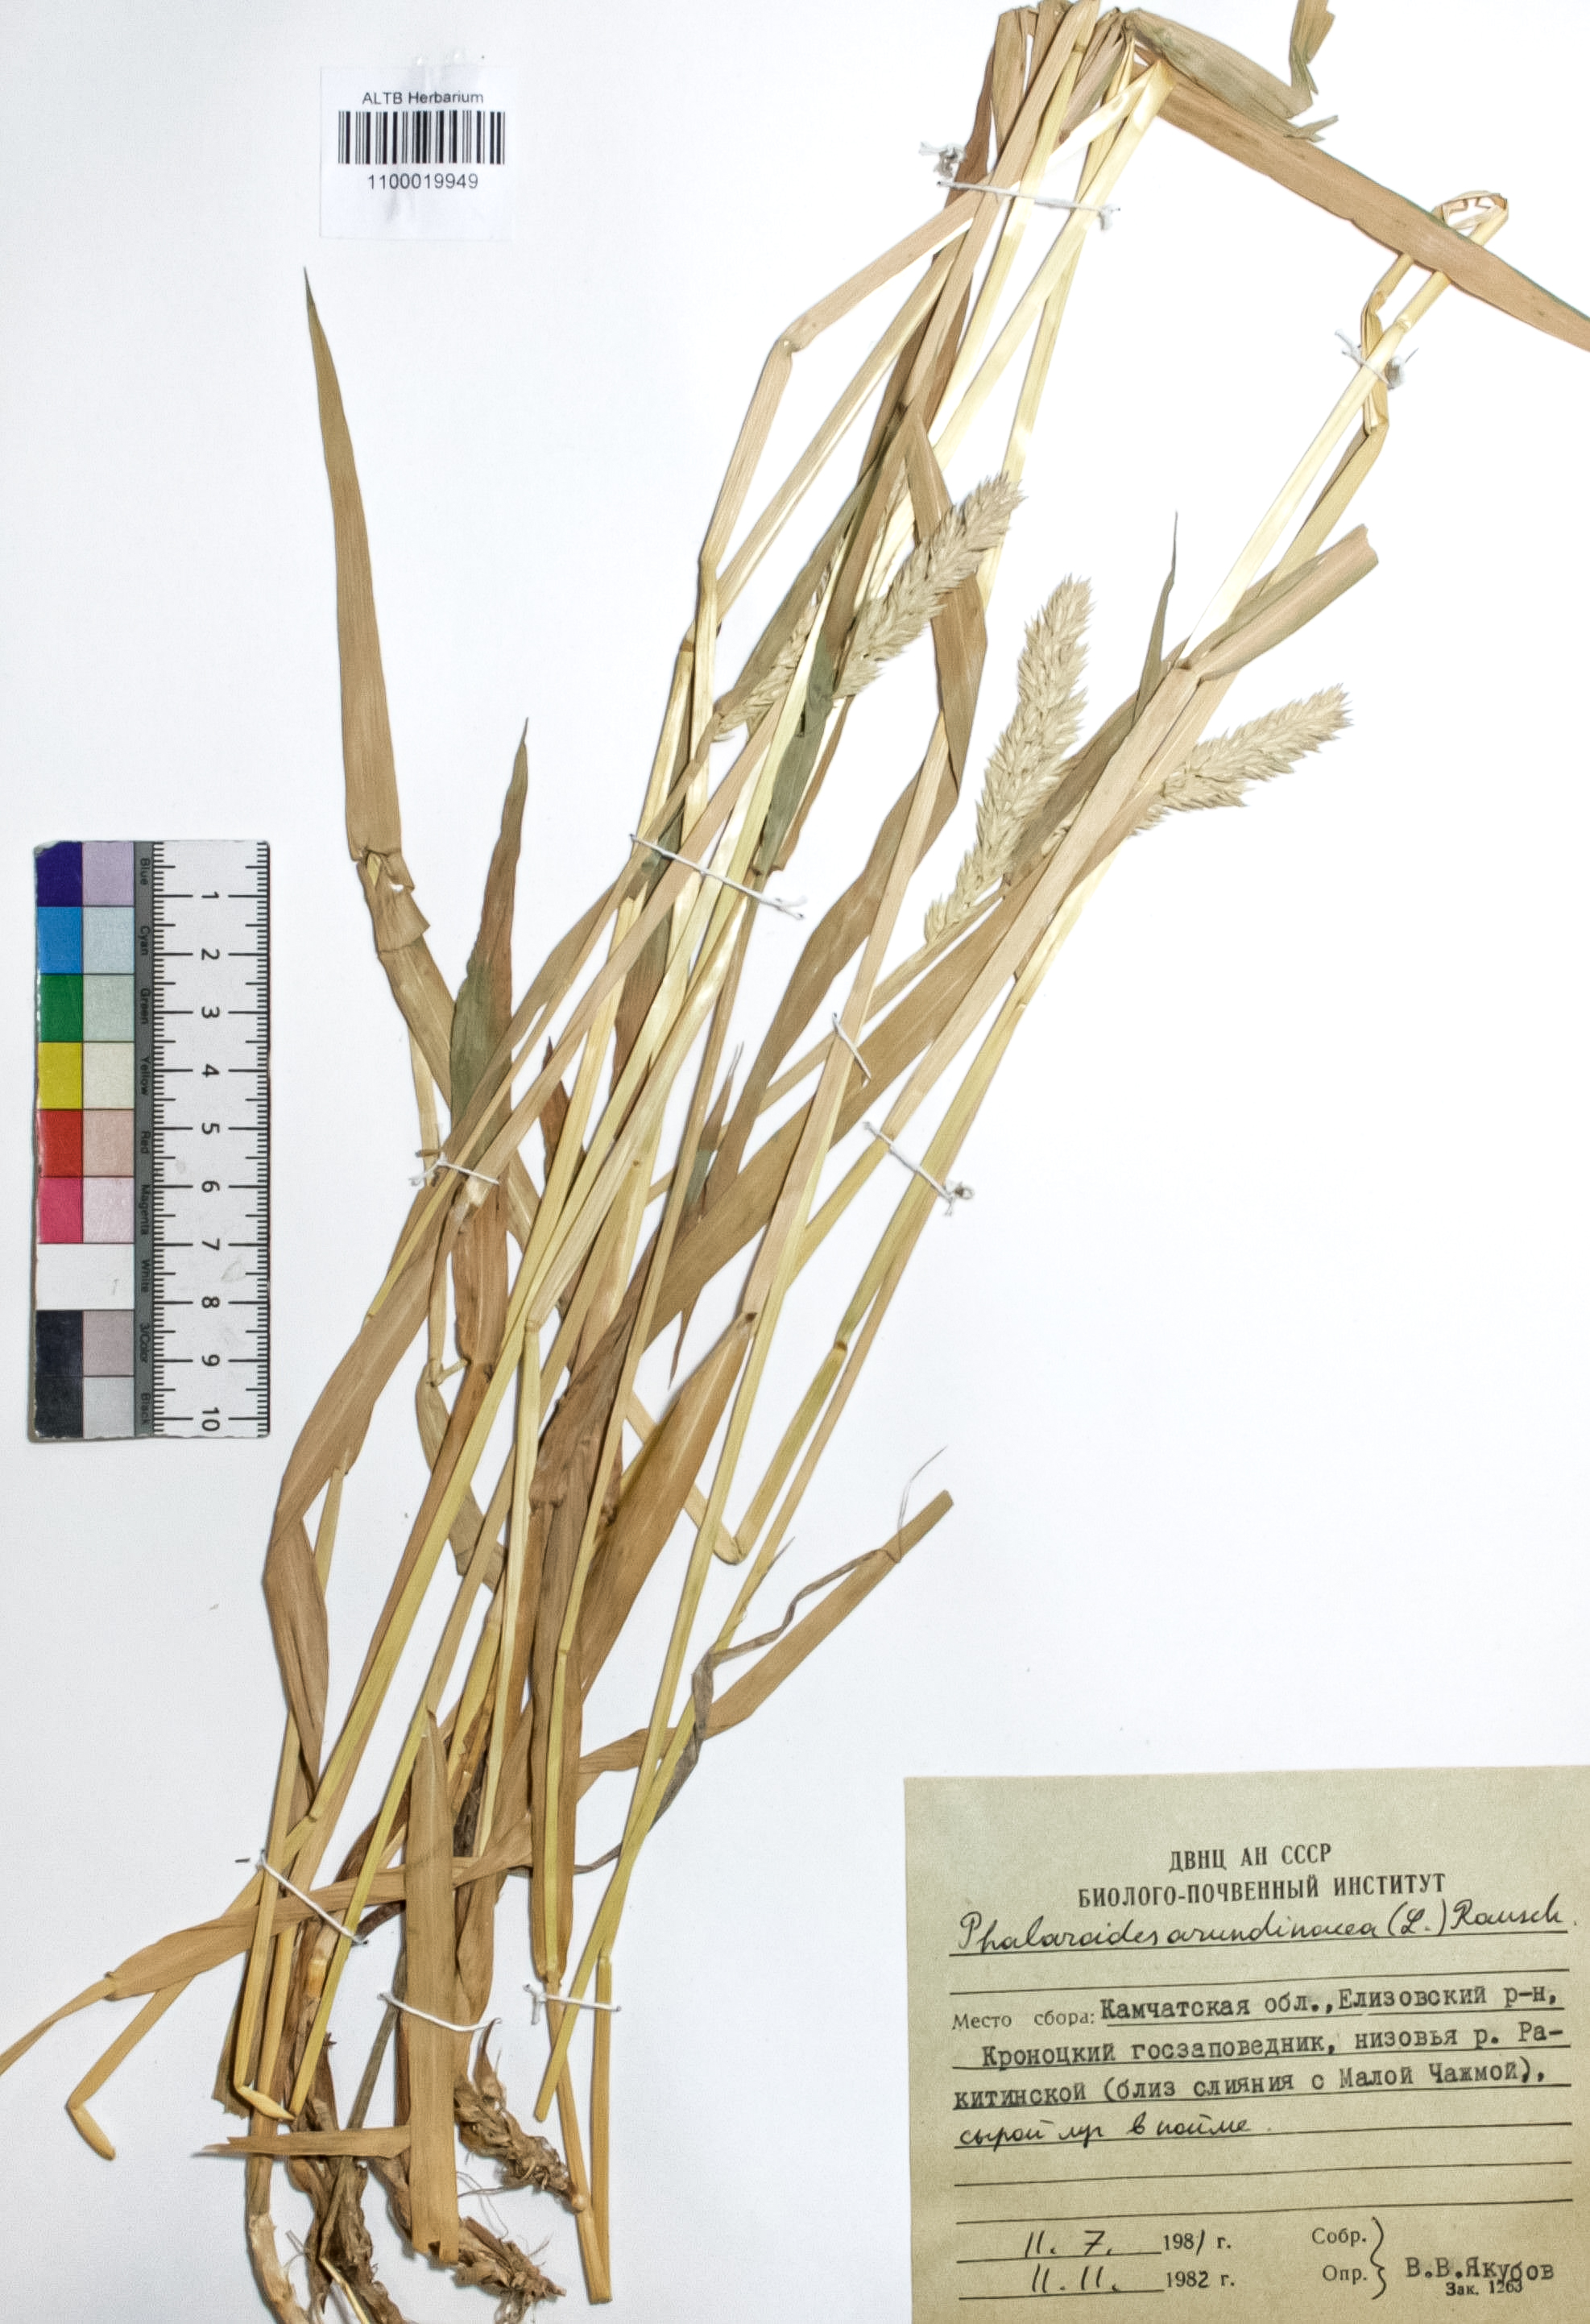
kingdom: Plantae
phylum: Tracheophyta
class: Liliopsida
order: Poales
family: Poaceae
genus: Phalaris
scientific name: Phalaris arundinacea
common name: Reed canary-grass
